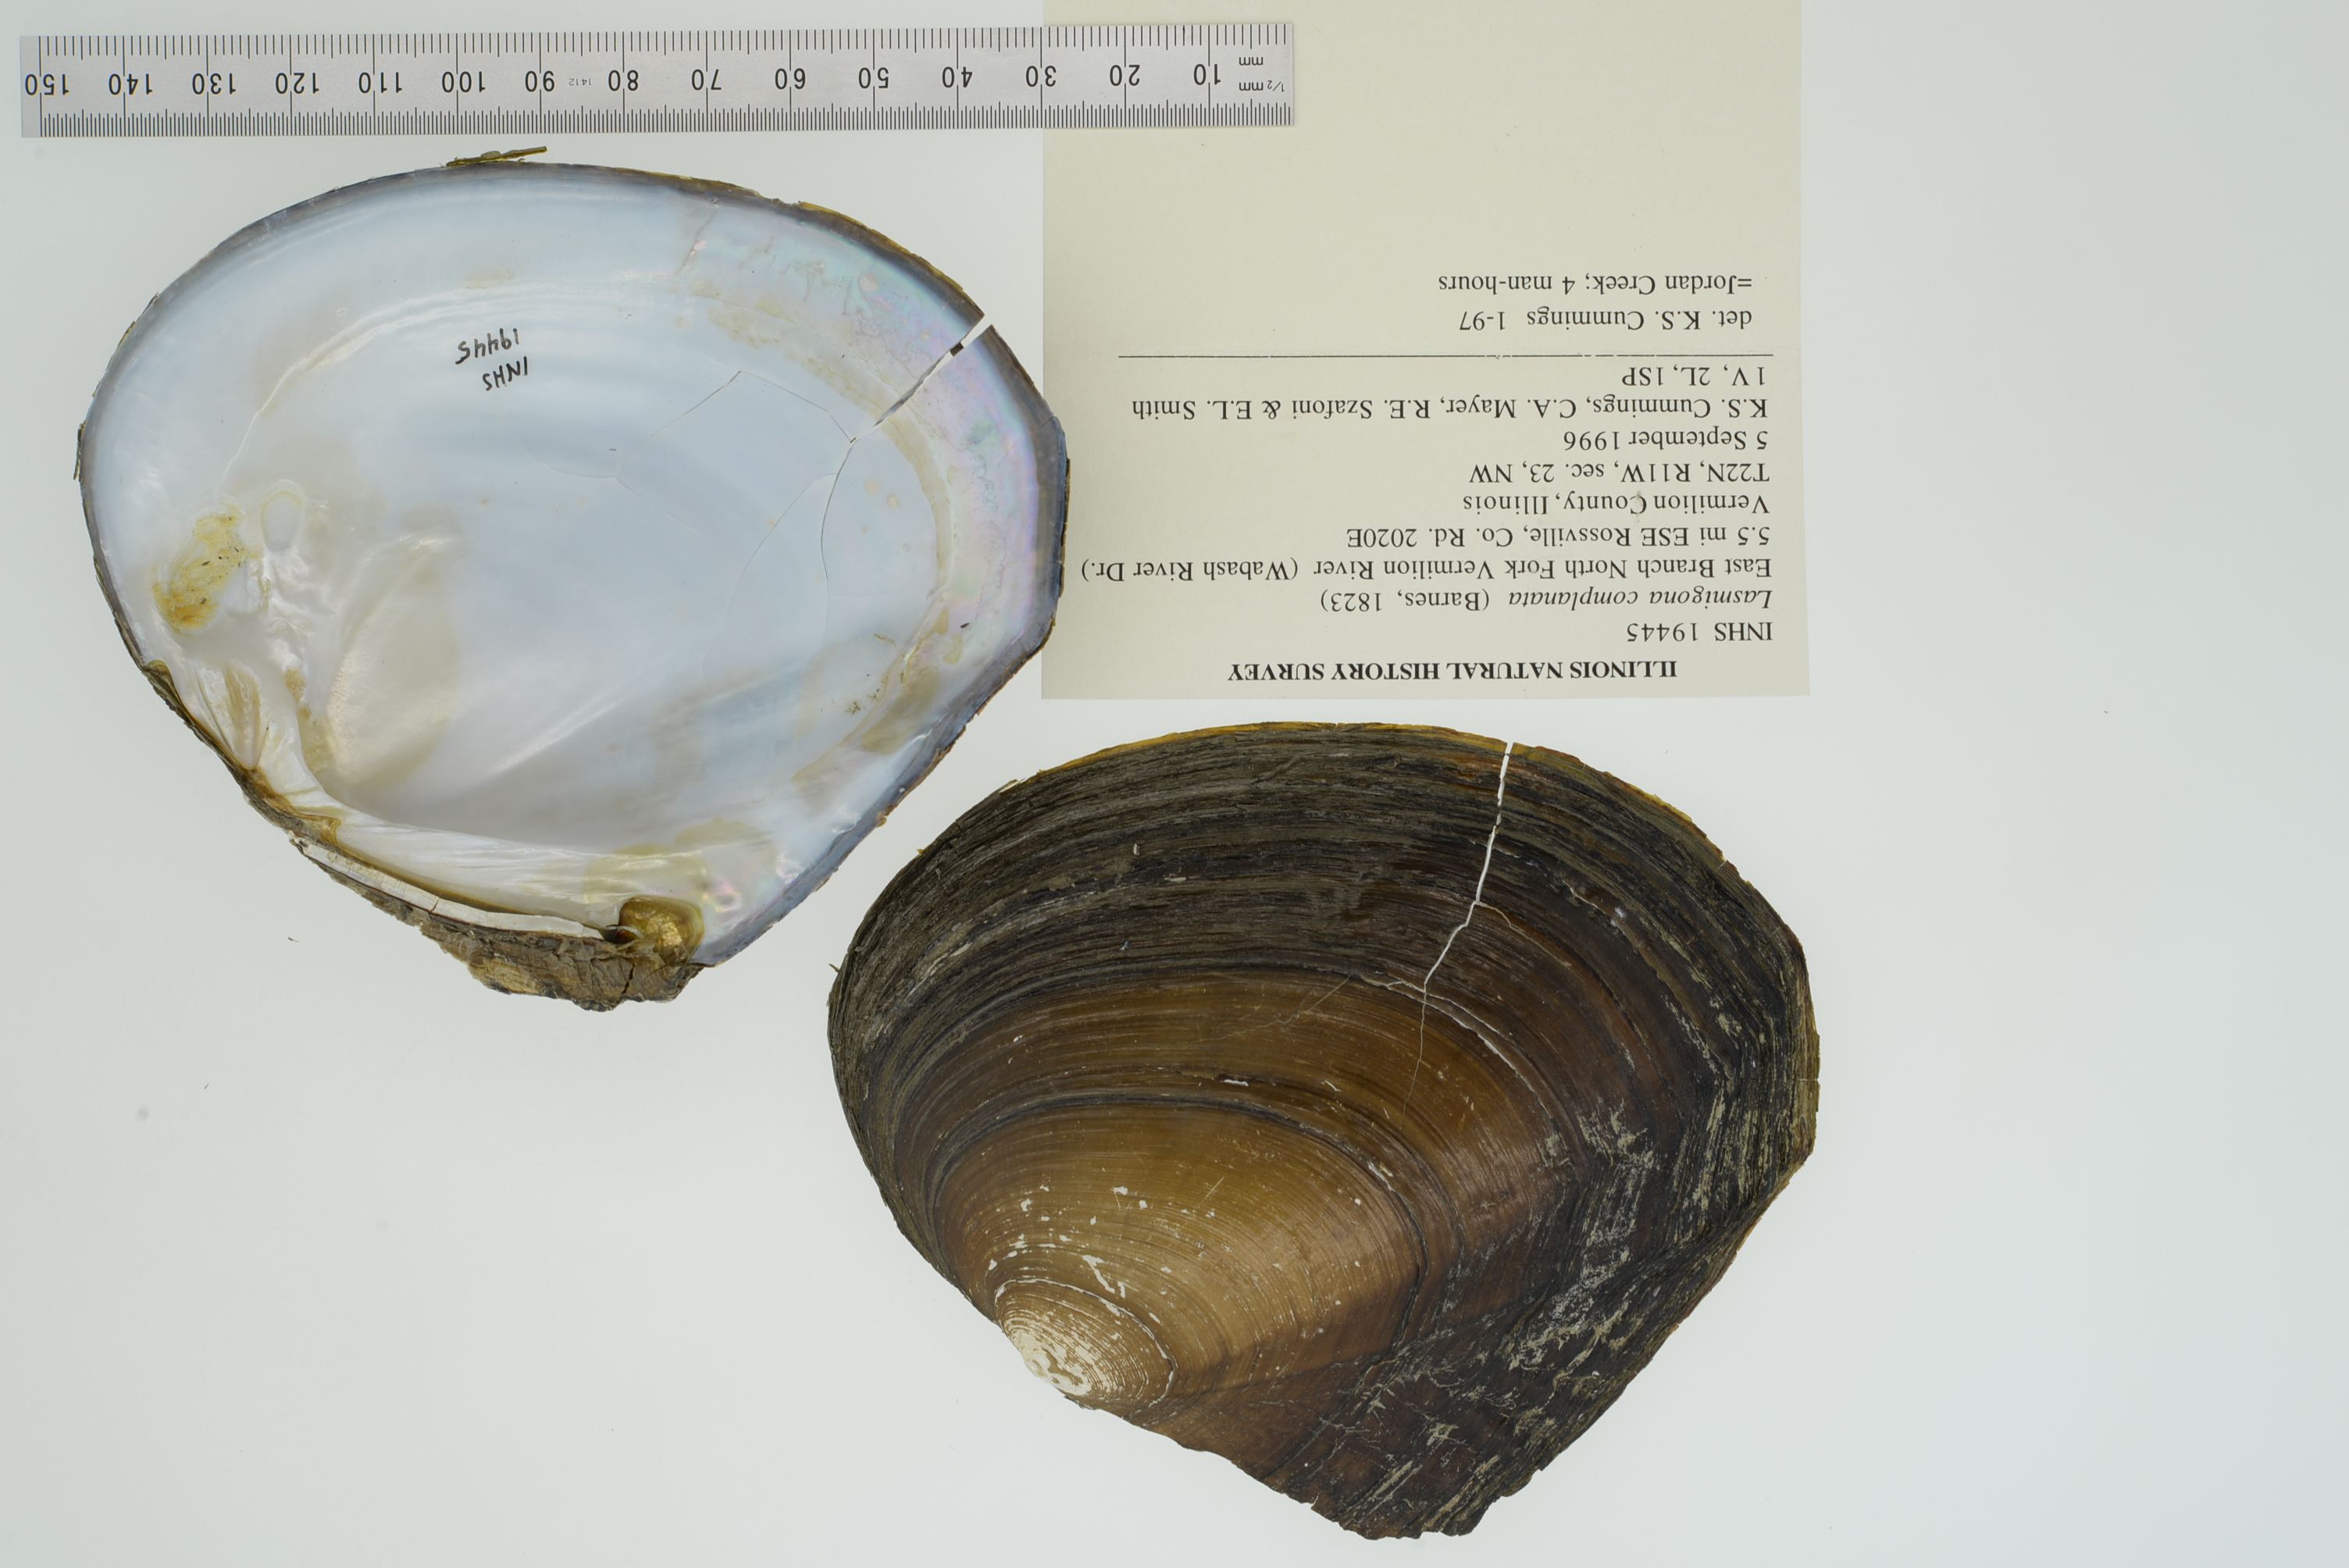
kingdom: Animalia
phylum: Mollusca
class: Bivalvia
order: Unionida
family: Unionidae
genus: Lasmigona
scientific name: Lasmigona complanata
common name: White heelsplitter
